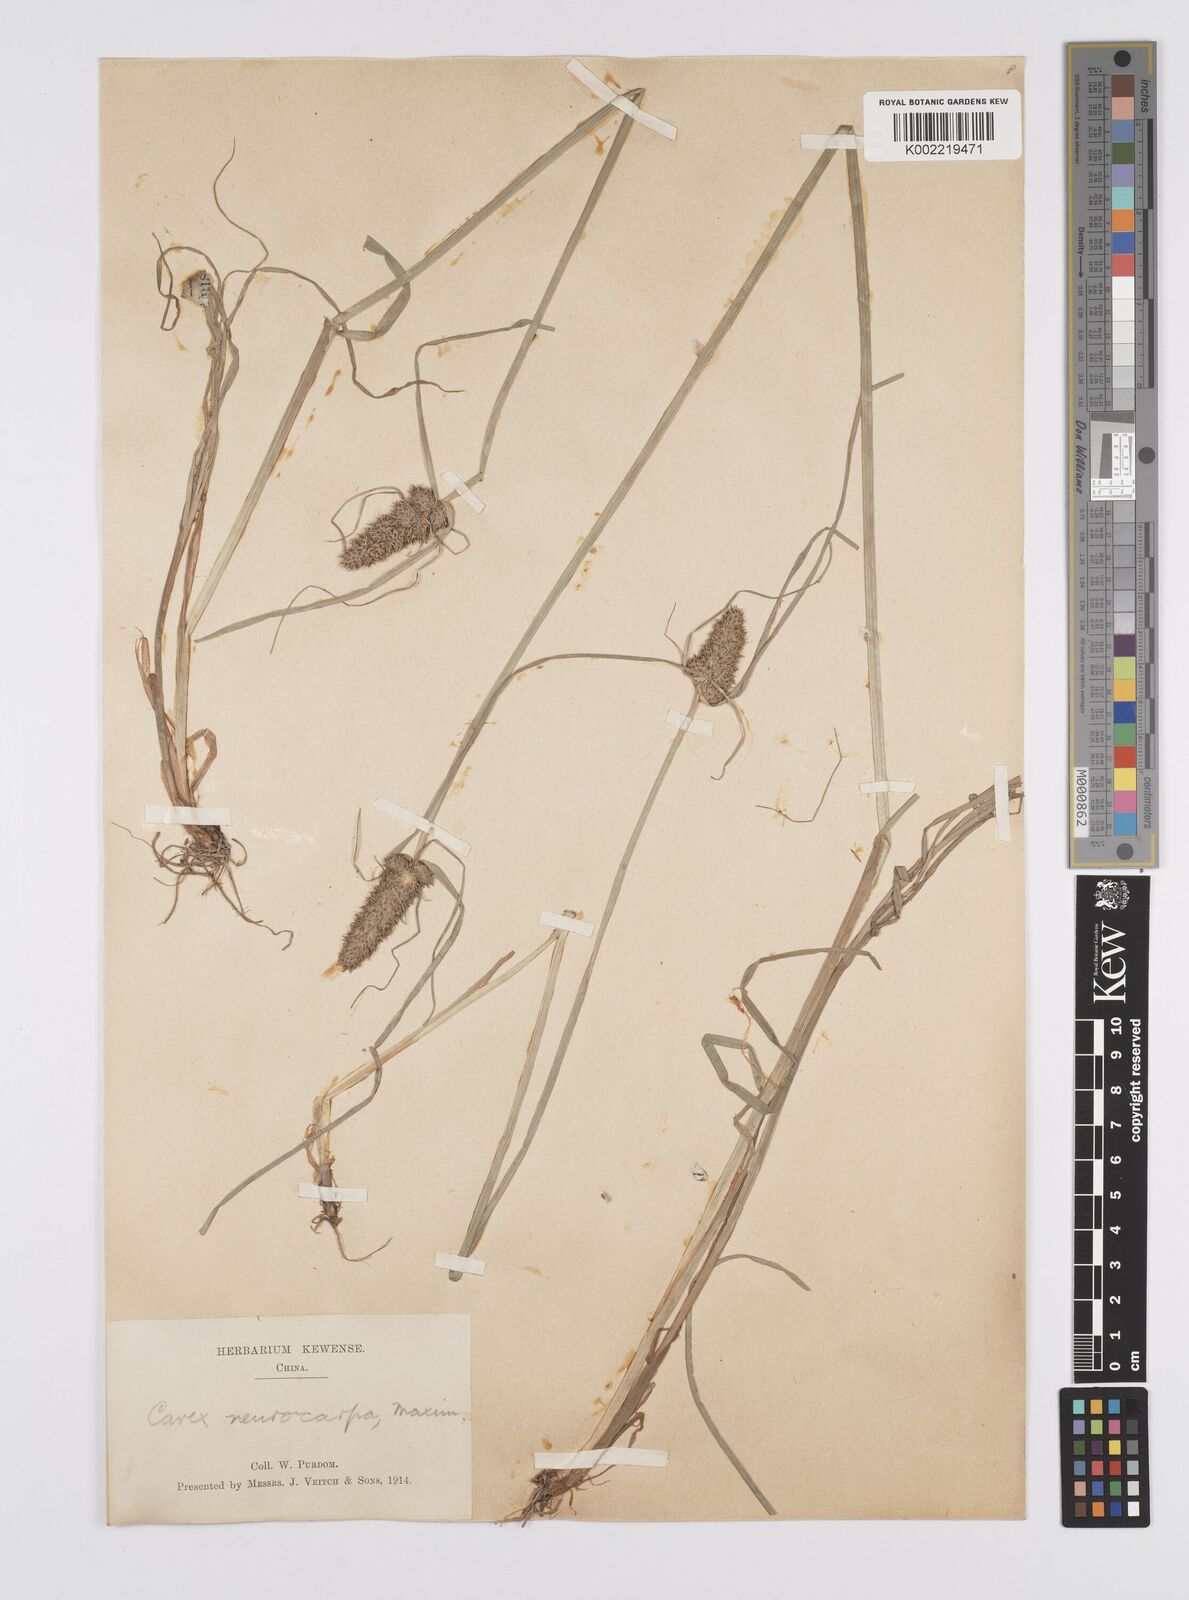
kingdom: Plantae
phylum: Tracheophyta
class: Liliopsida
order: Poales
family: Cyperaceae
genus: Carex
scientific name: Carex neurocarpa
